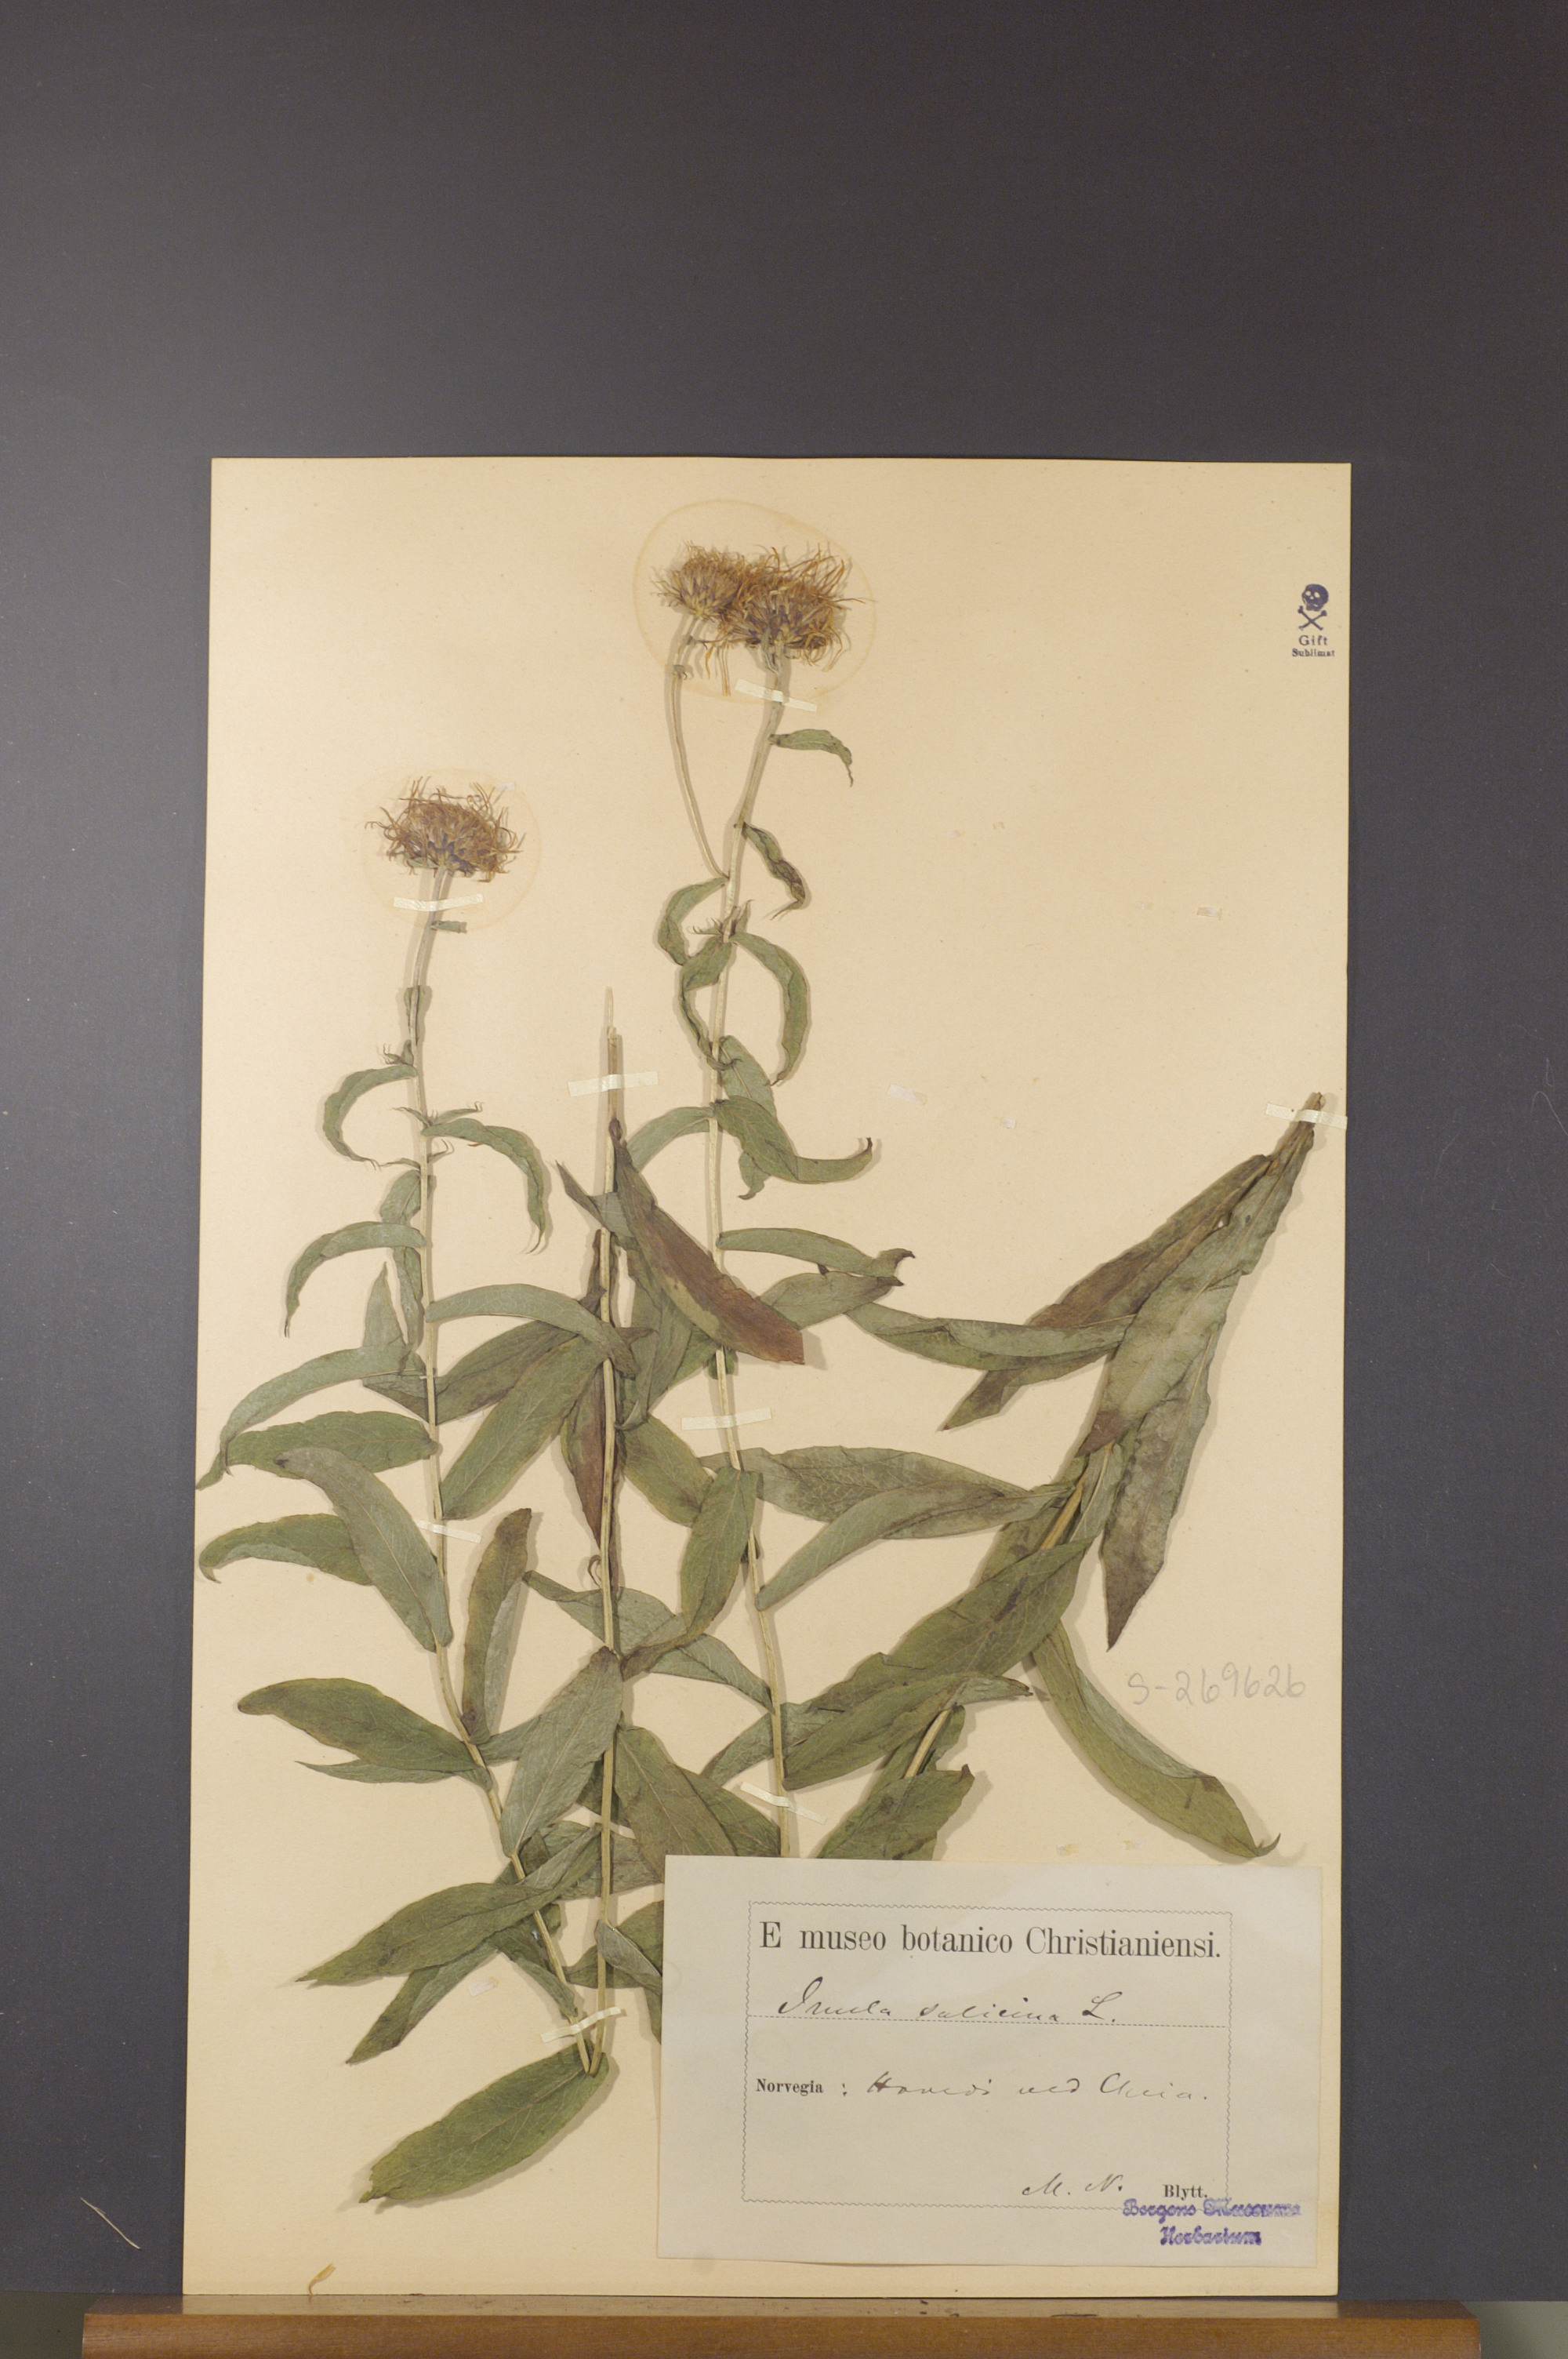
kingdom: Plantae
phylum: Tracheophyta
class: Magnoliopsida
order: Asterales
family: Asteraceae
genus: Pentanema
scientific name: Pentanema salicinum
